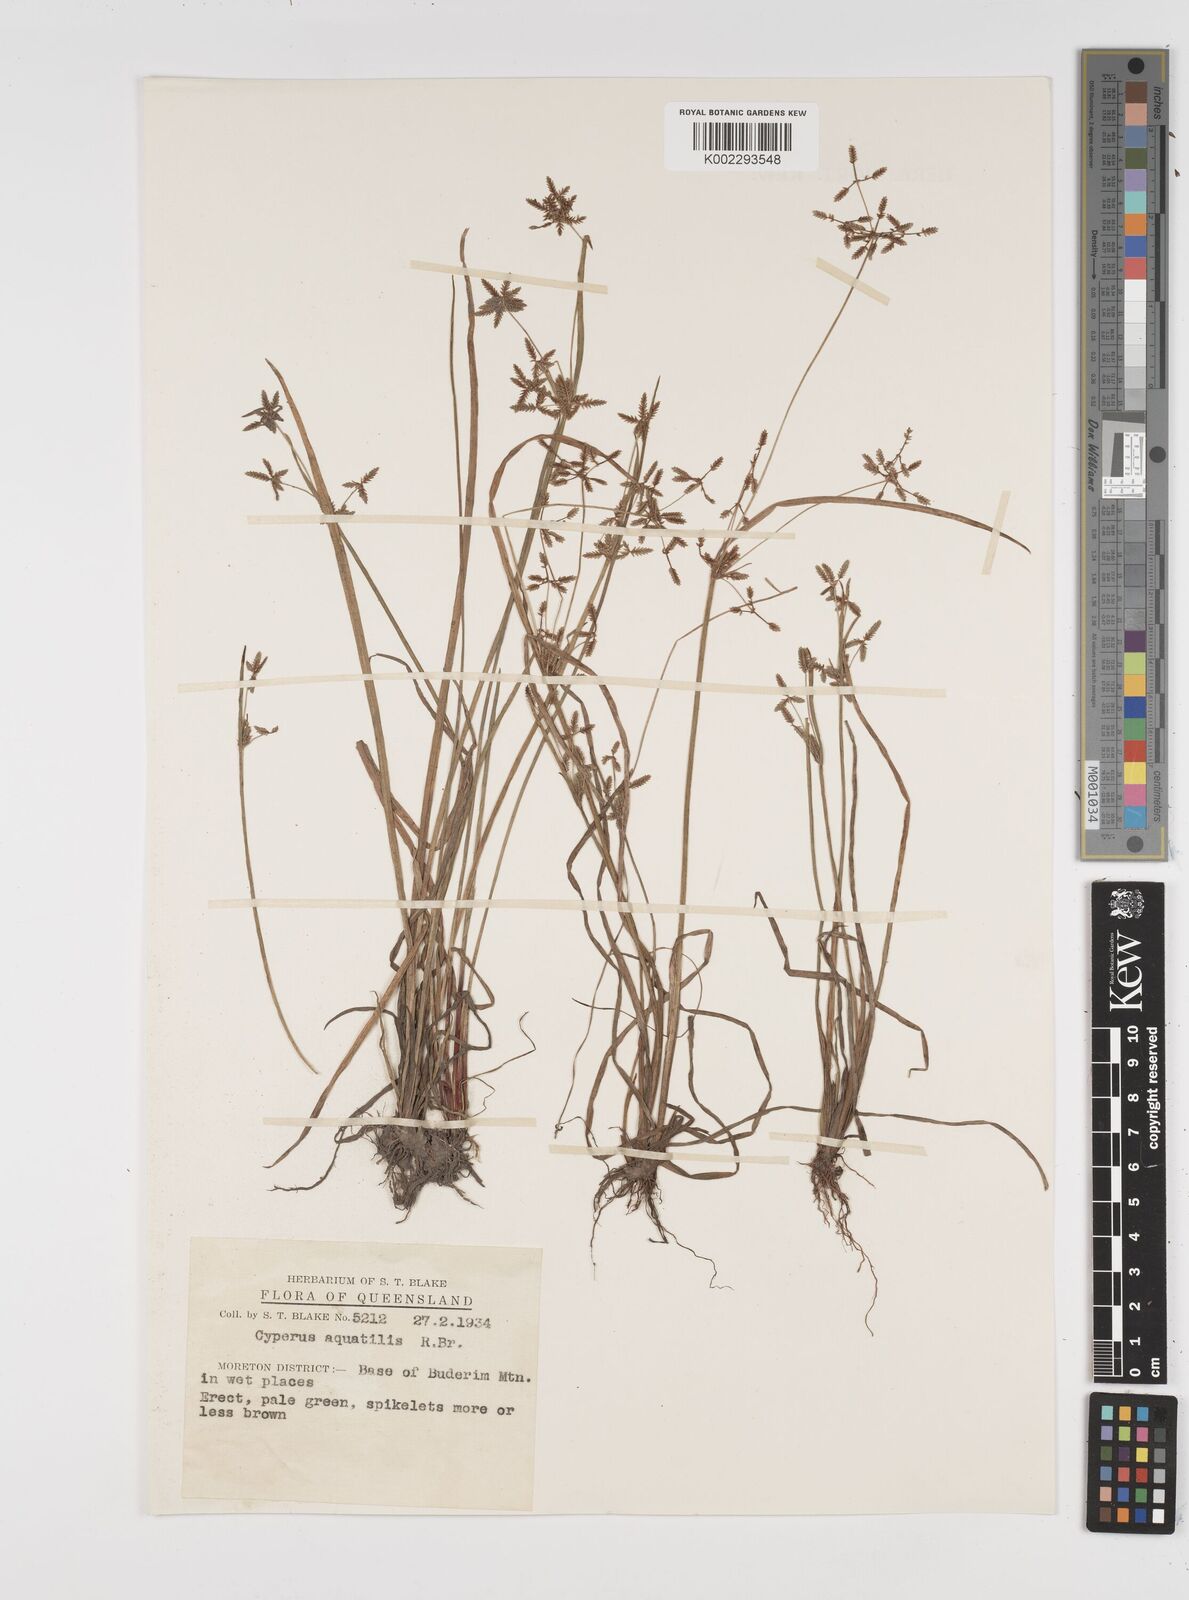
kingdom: Plantae
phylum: Tracheophyta
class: Liliopsida
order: Poales
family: Cyperaceae
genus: Cyperus
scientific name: Cyperus aquatilis
